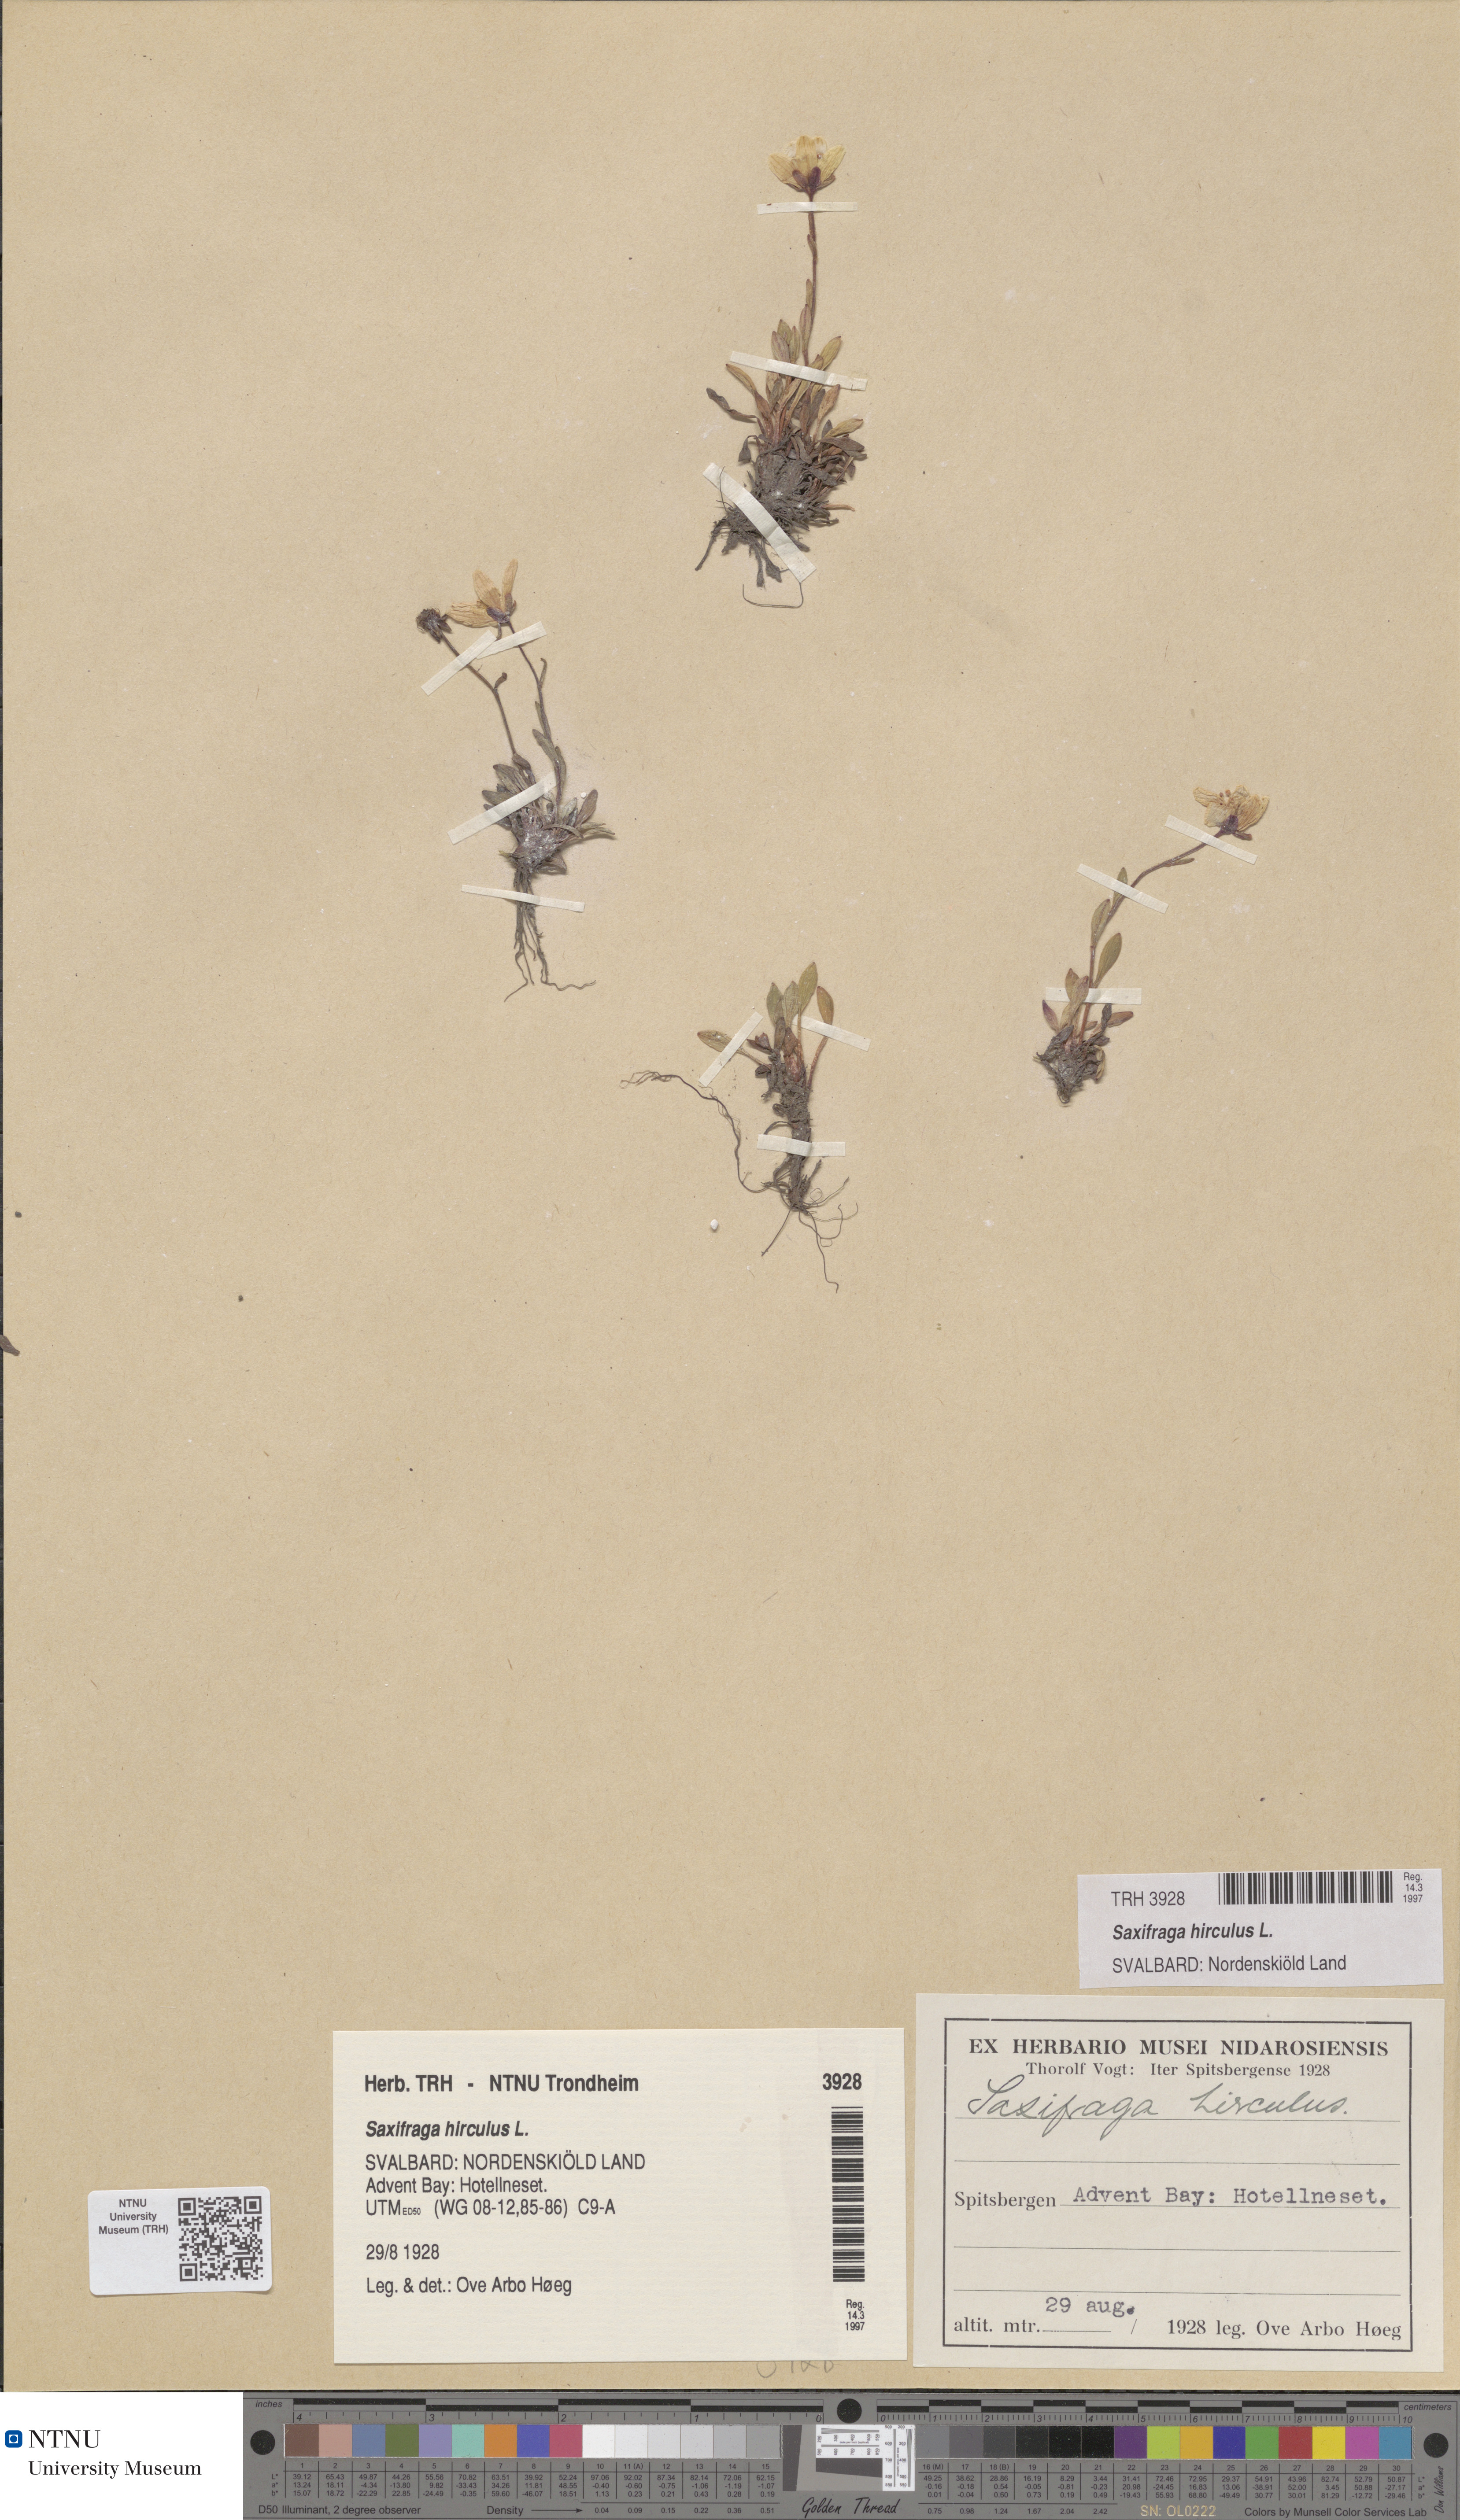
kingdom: Plantae
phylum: Tracheophyta
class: Magnoliopsida
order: Saxifragales
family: Saxifragaceae
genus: Saxifraga
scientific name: Saxifraga hirculus
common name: Yellow marsh saxifrage
